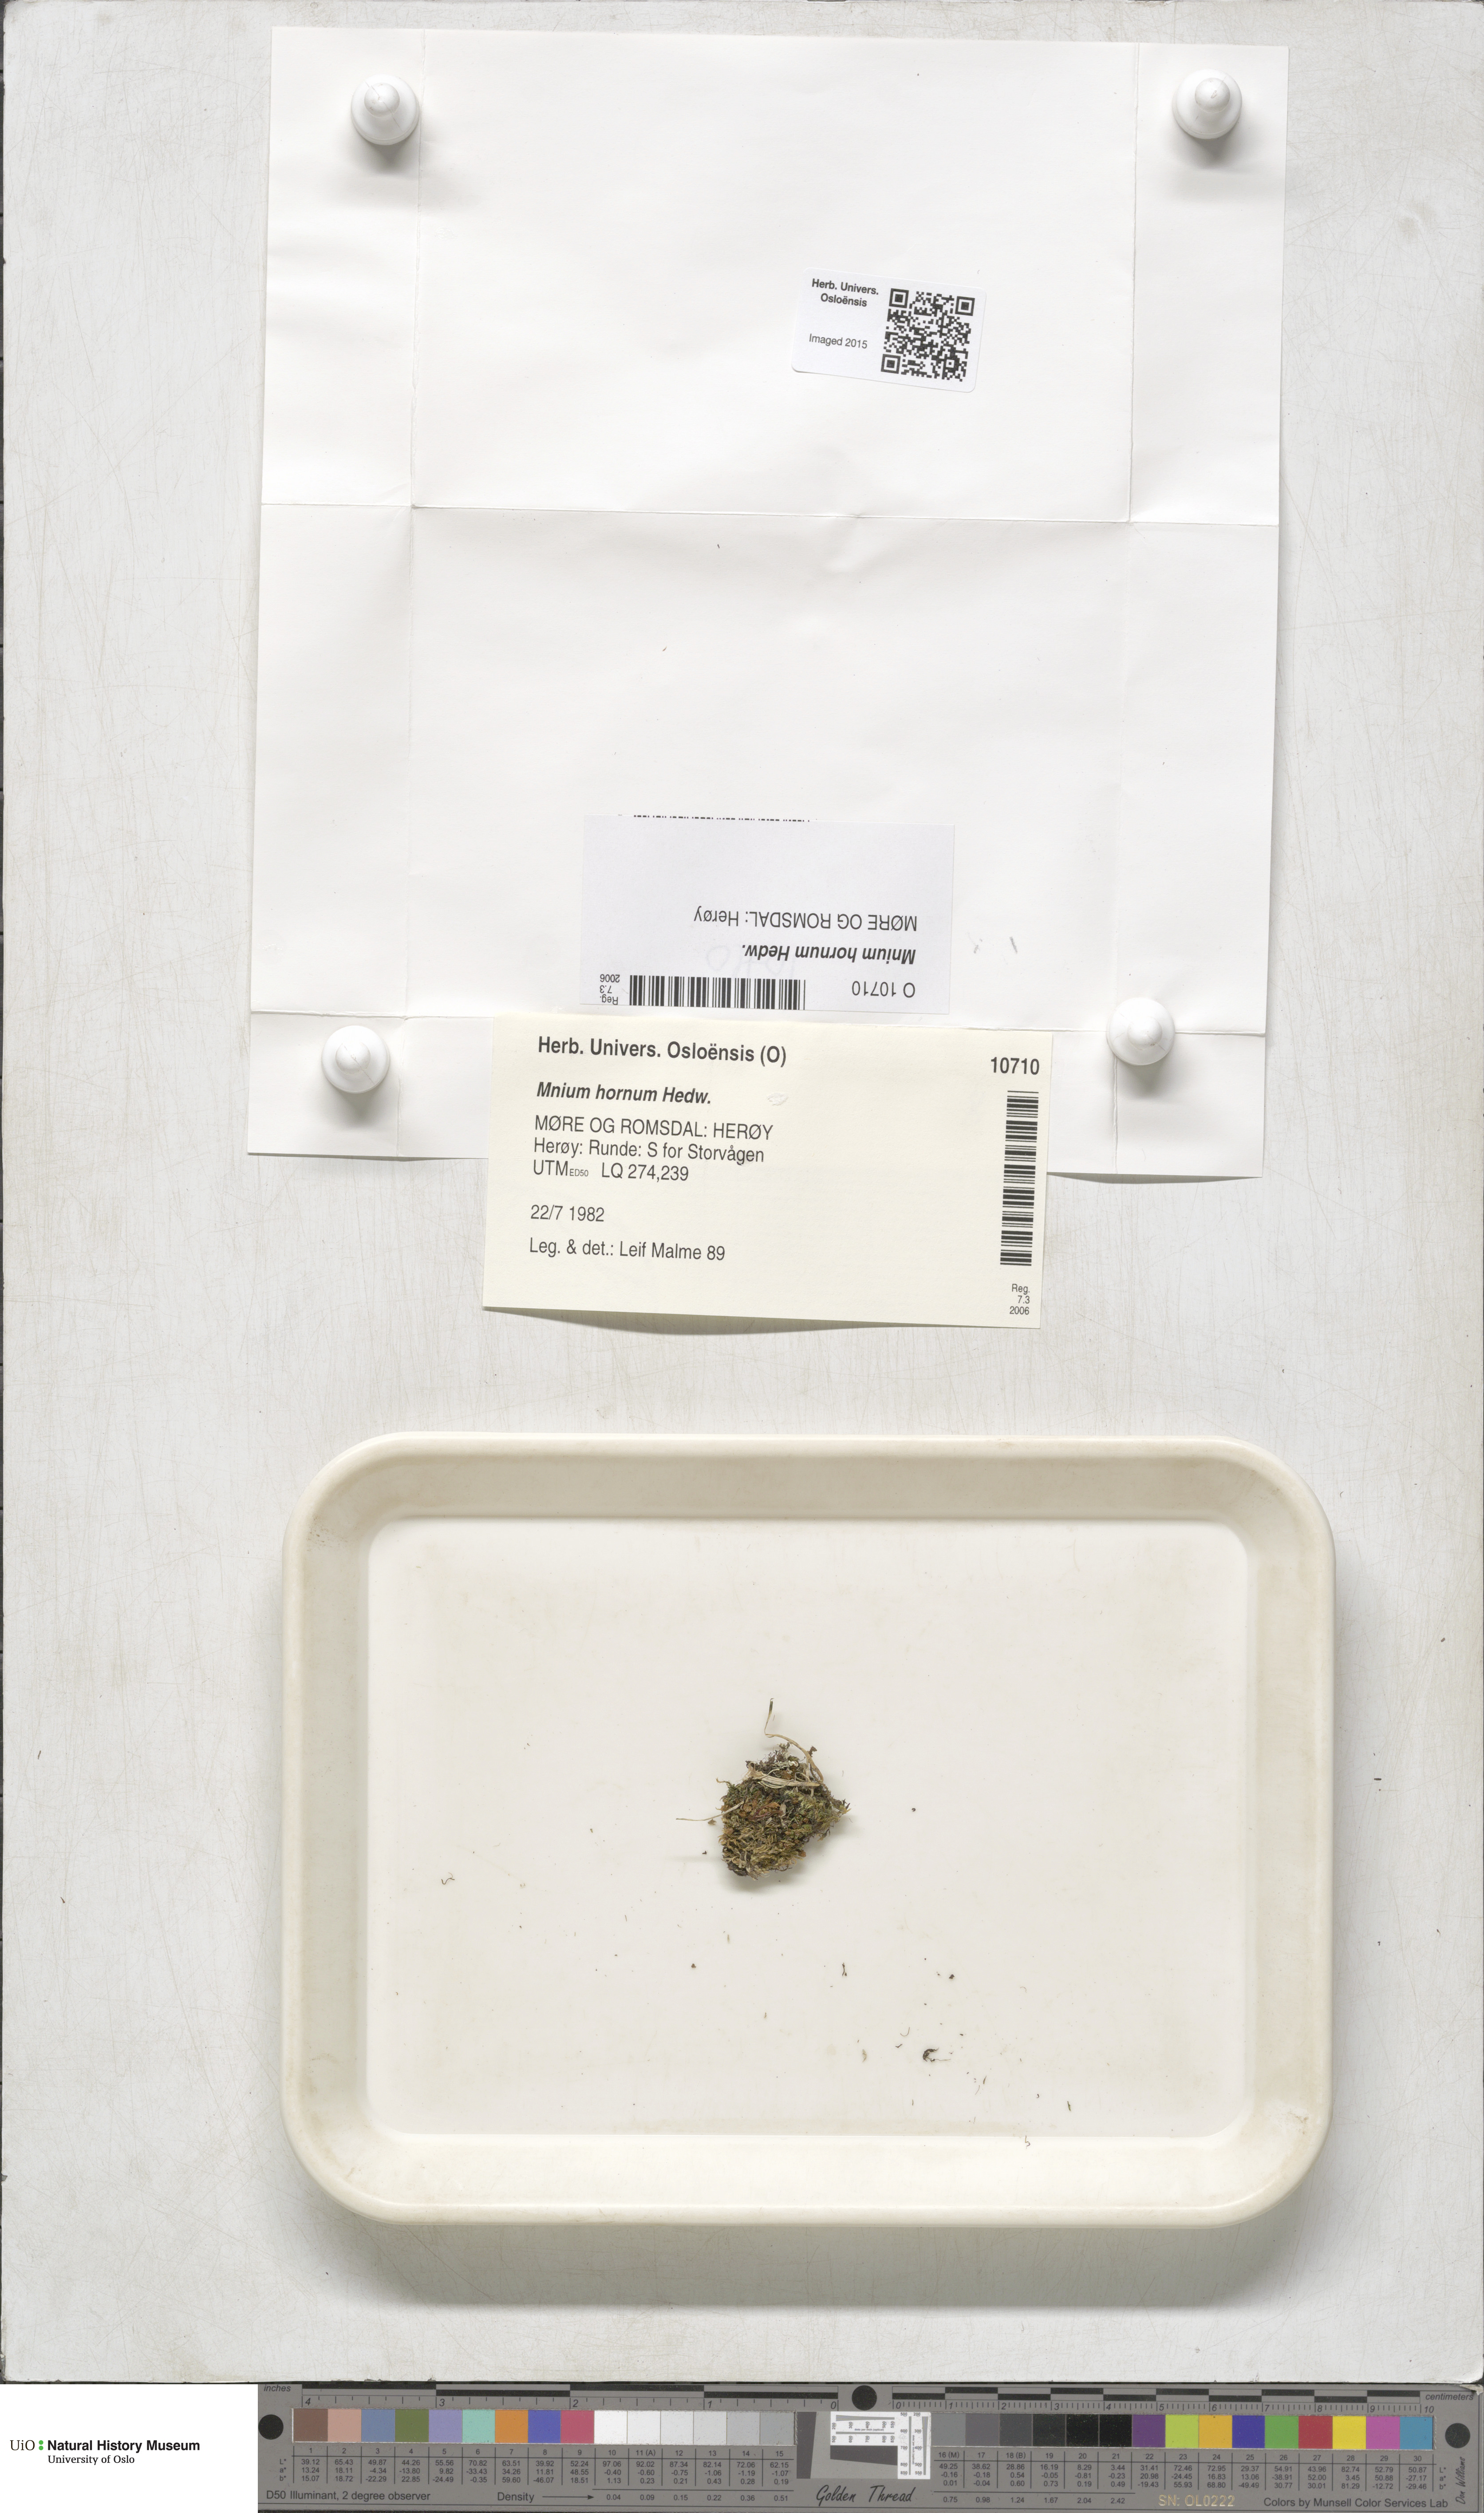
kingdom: Plantae
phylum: Bryophyta
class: Bryopsida
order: Bryales
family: Mniaceae
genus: Mnium
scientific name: Mnium hornum
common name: Swan's-neck leafy moss
